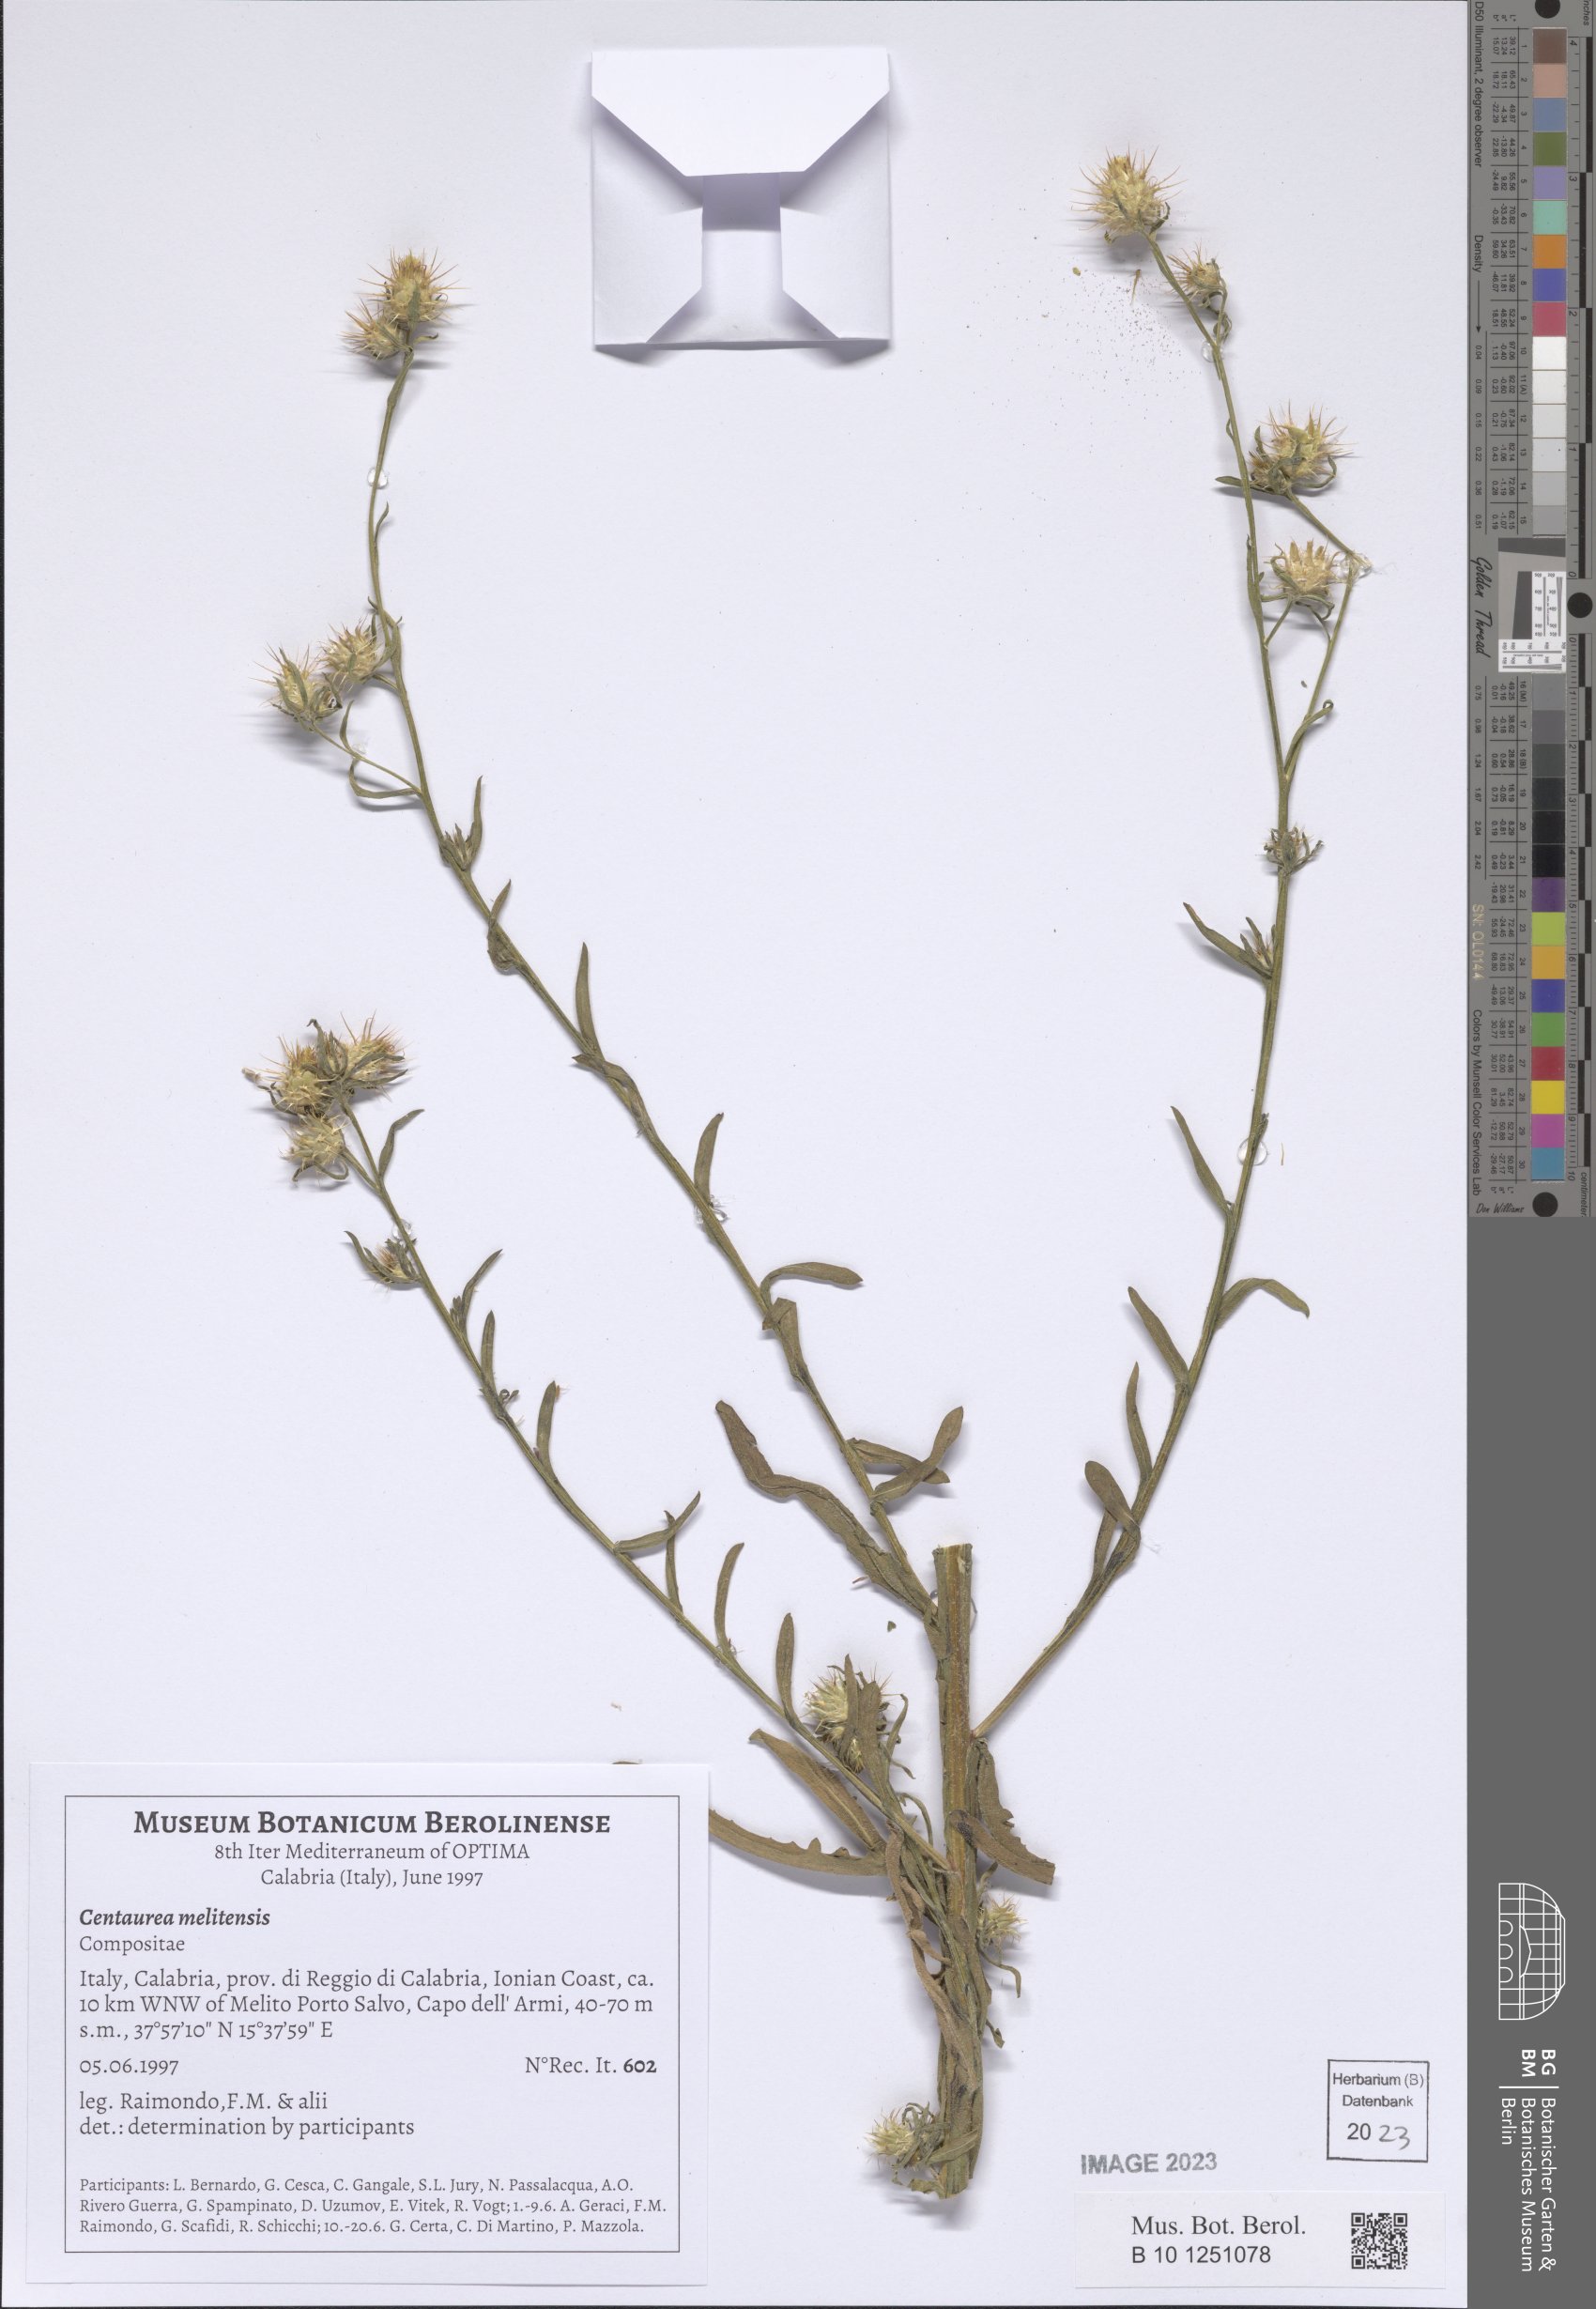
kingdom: Plantae
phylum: Tracheophyta
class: Magnoliopsida
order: Asterales
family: Asteraceae
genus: Centaurea
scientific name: Centaurea melitensis
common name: Maltese star-thistle
